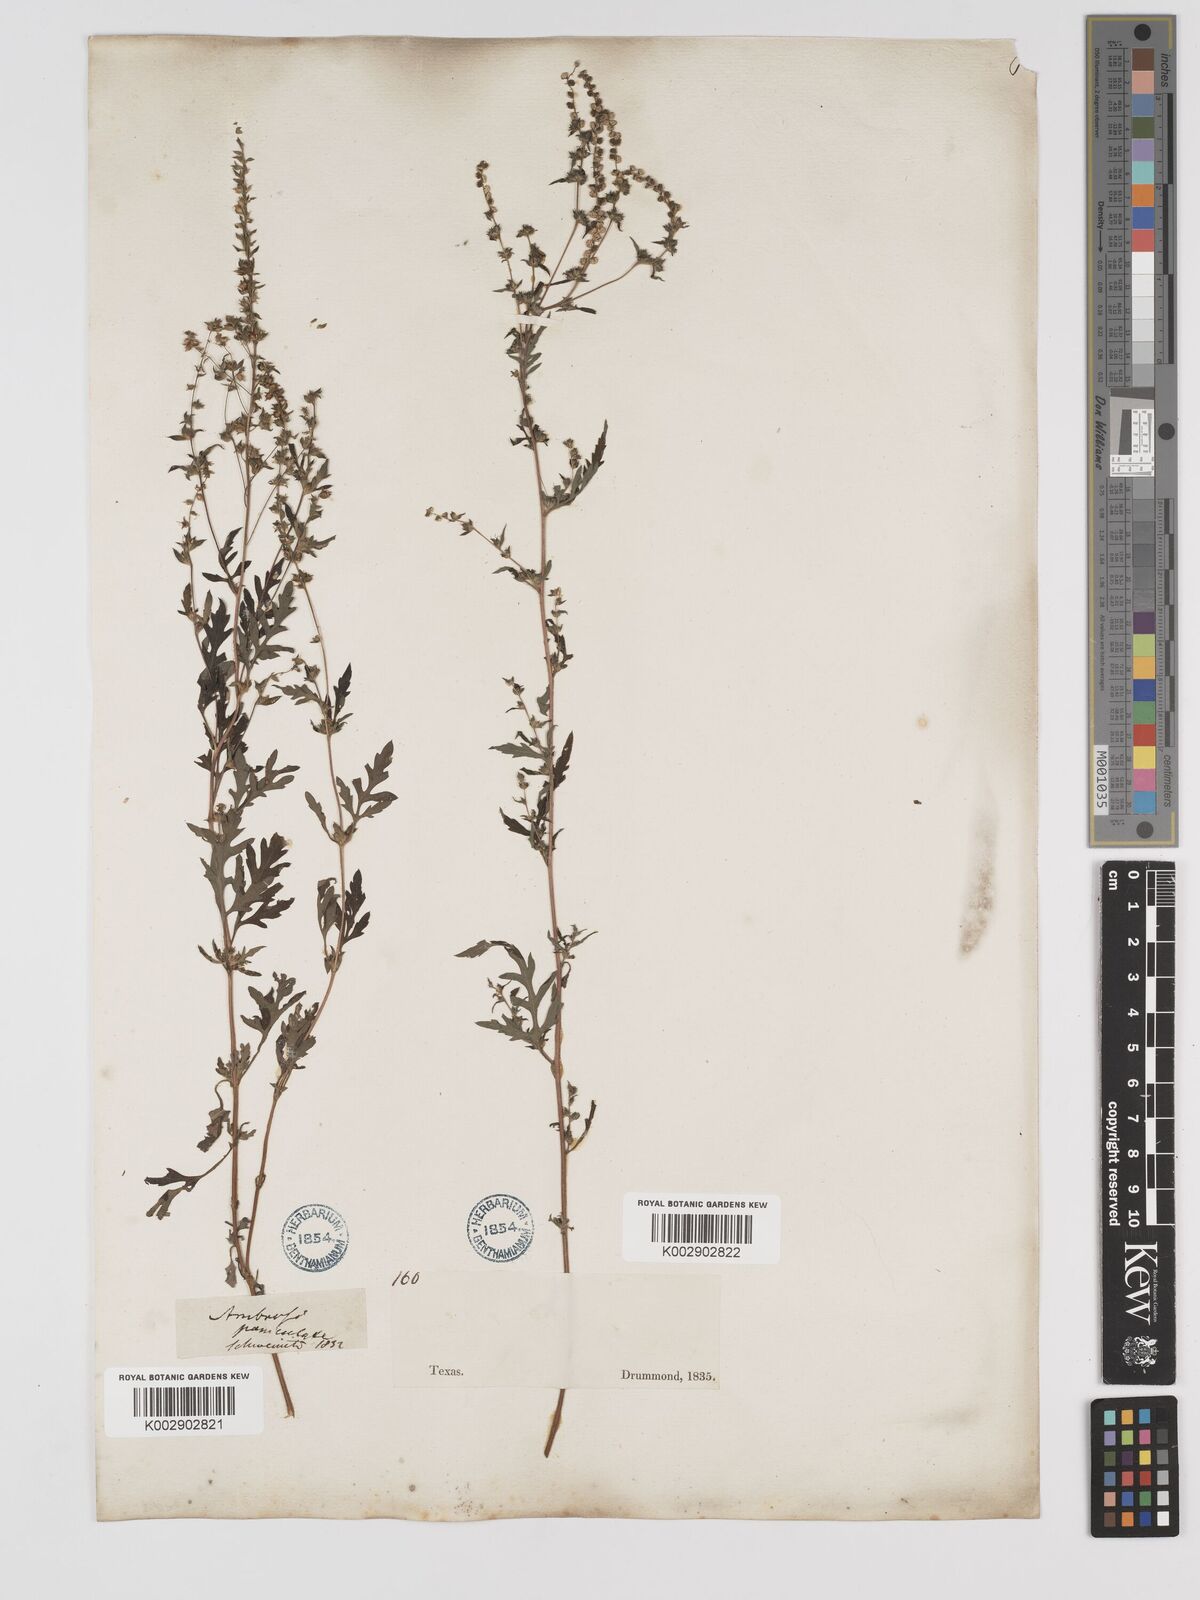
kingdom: Plantae
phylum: Tracheophyta
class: Magnoliopsida
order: Asterales
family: Asteraceae
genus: Ambrosia
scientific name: Ambrosia artemisiifolia
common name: Annual ragweed
